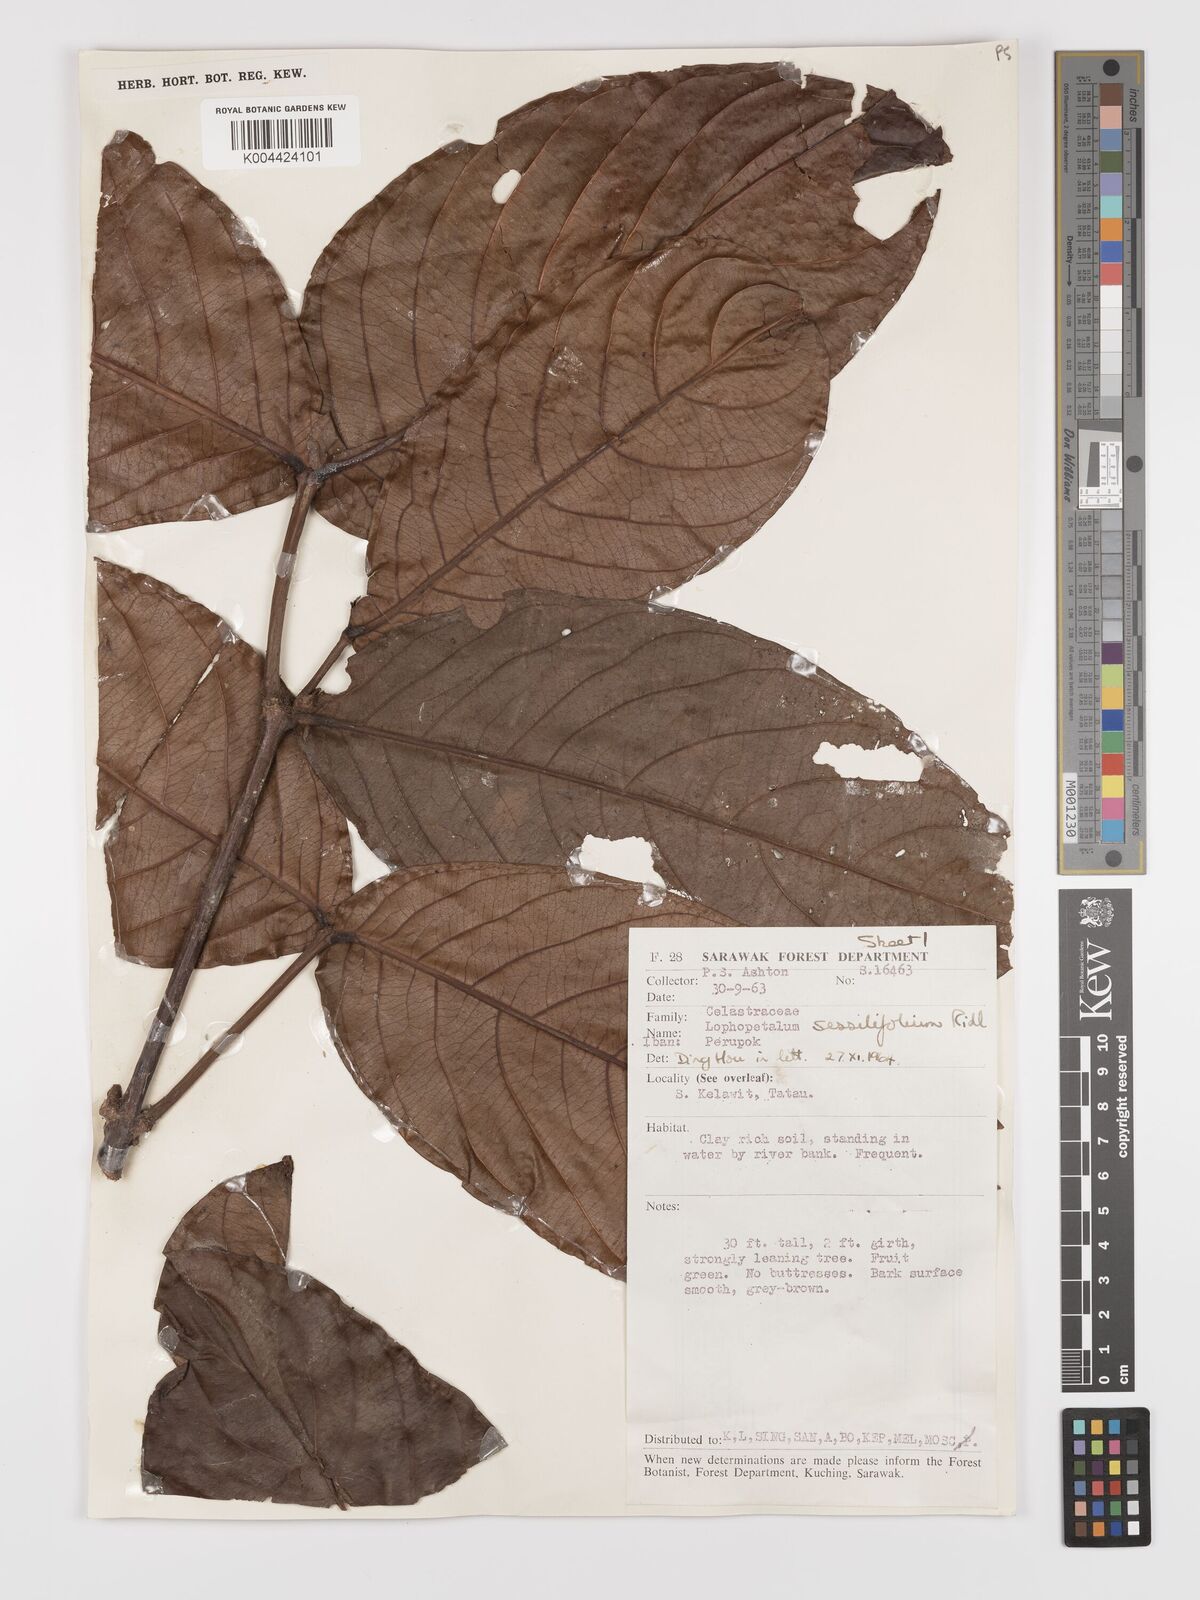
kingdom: Plantae
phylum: Tracheophyta
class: Magnoliopsida
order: Celastrales
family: Celastraceae
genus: Lophopetalum
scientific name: Lophopetalum sessilifolium
